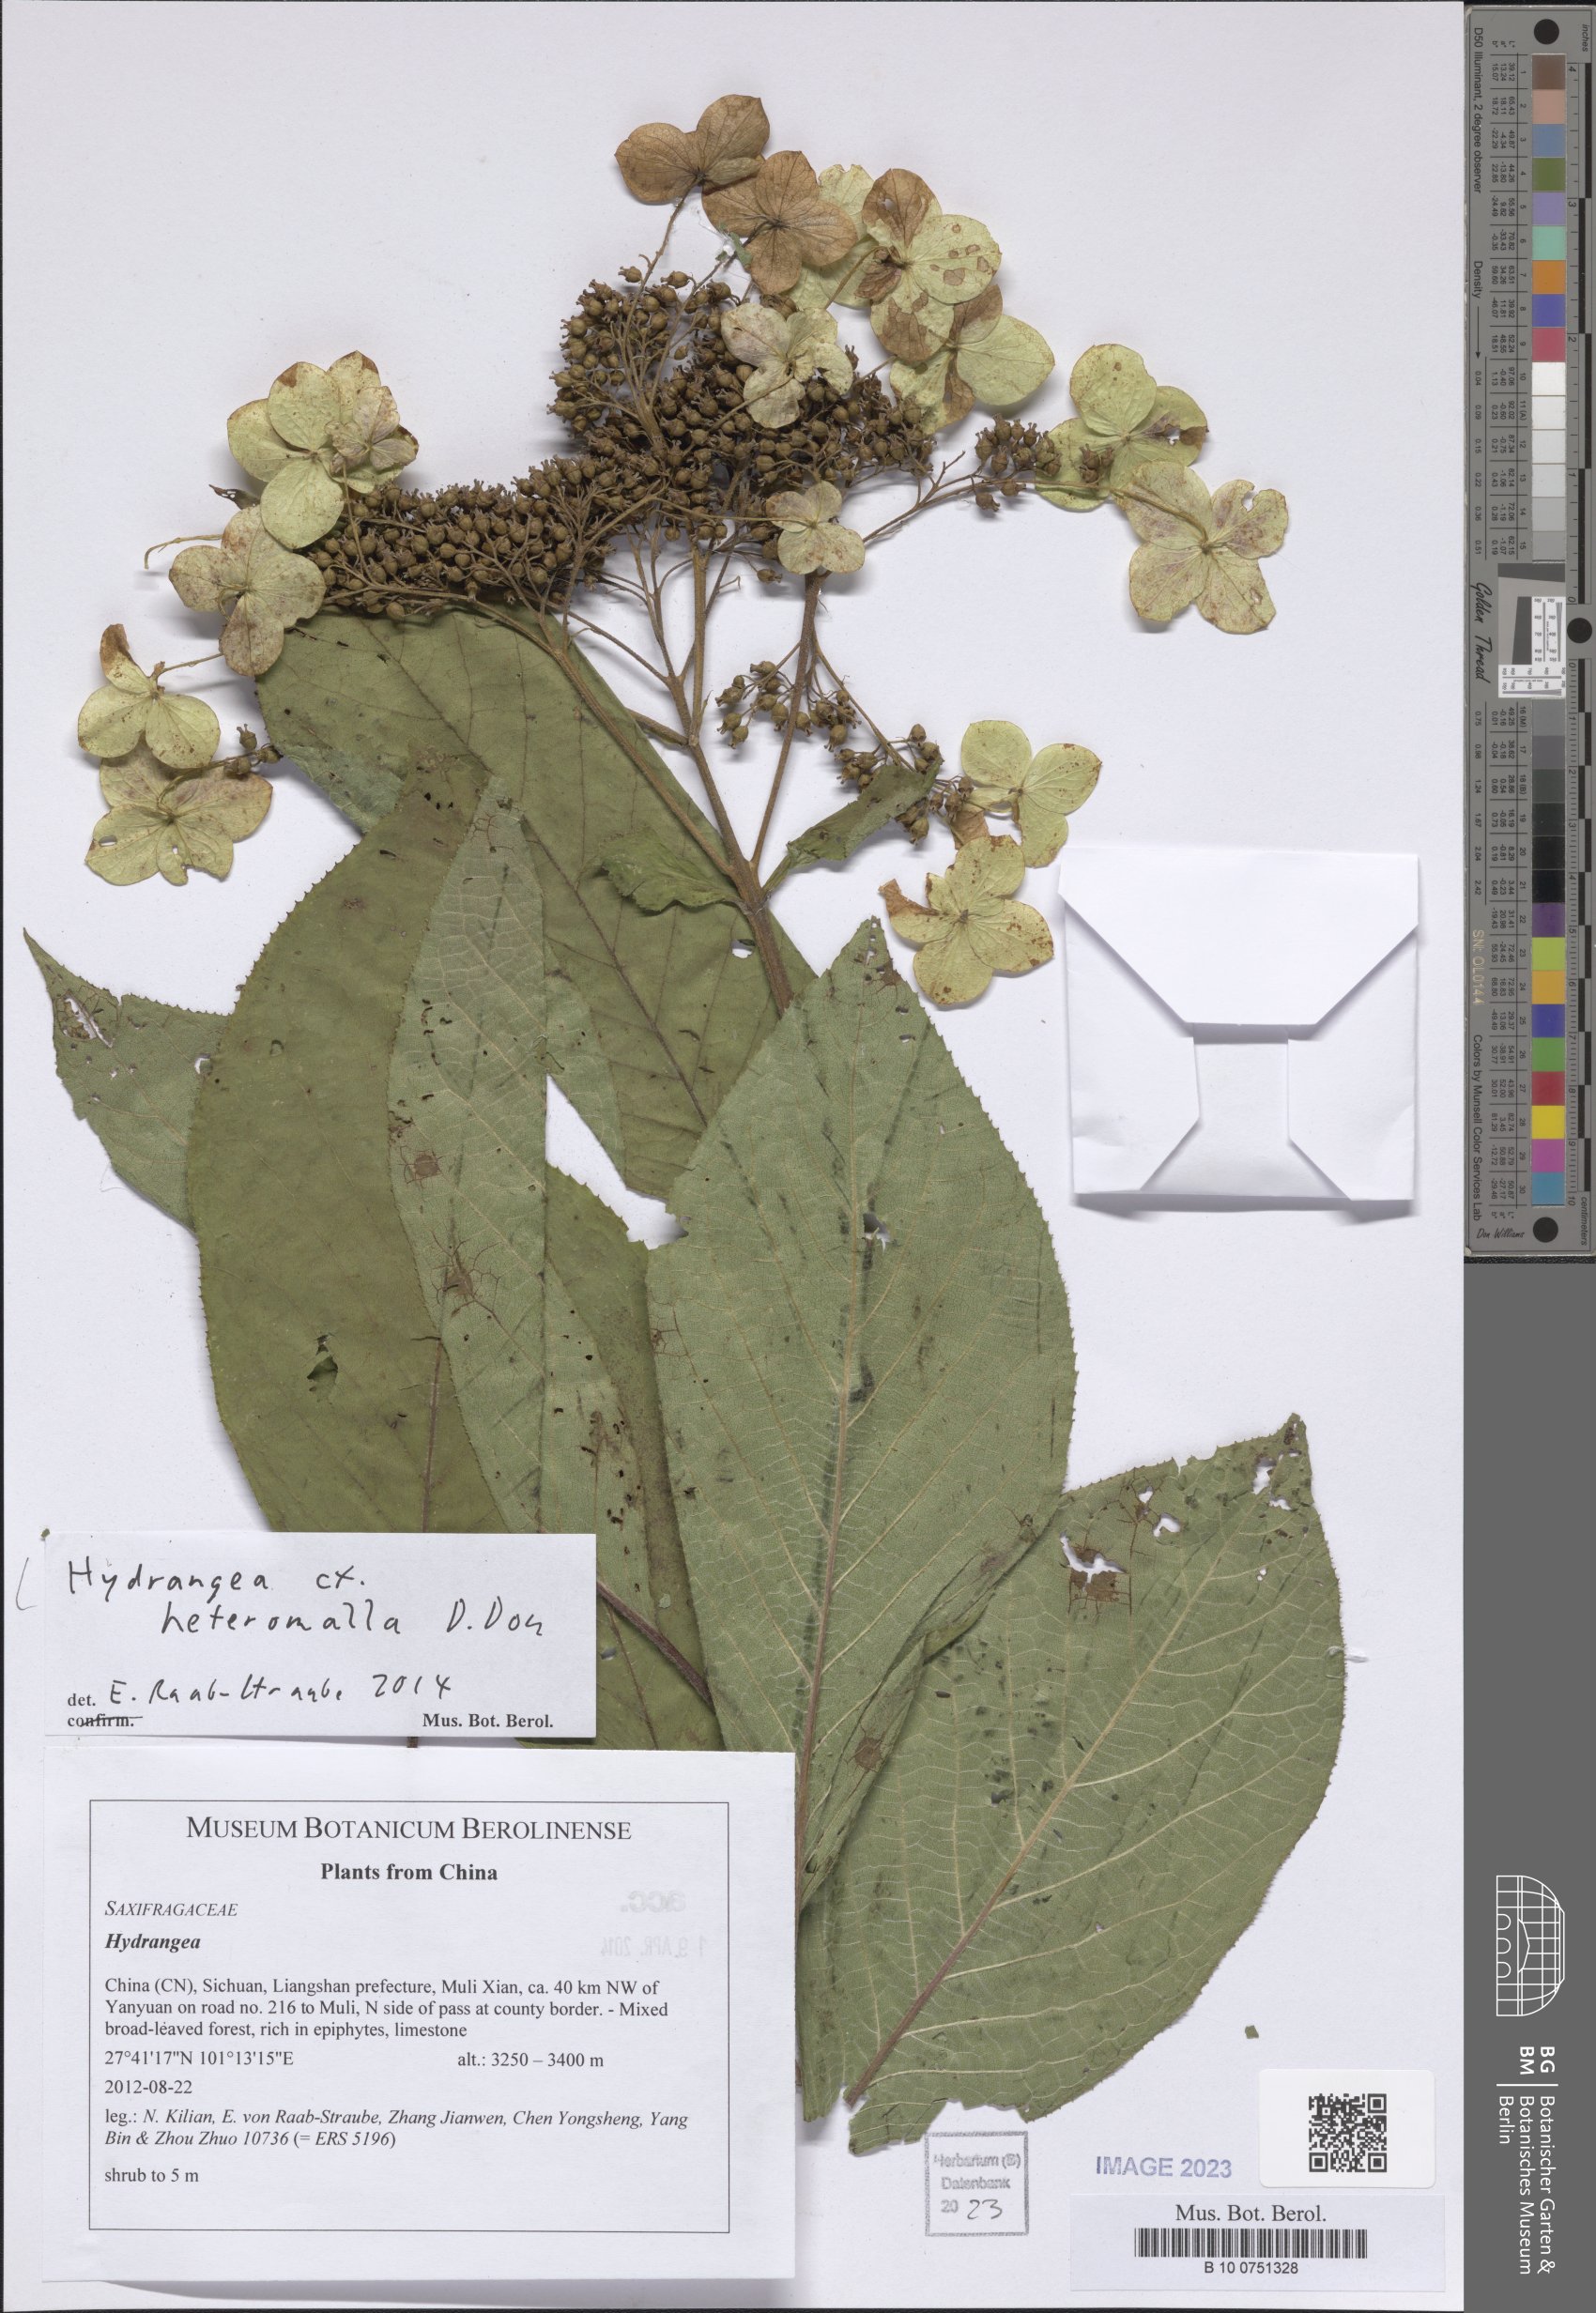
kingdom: Plantae
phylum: Tracheophyta
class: Magnoliopsida
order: Cornales
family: Hydrangeaceae
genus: Hydrangea
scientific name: Hydrangea heteromalla
